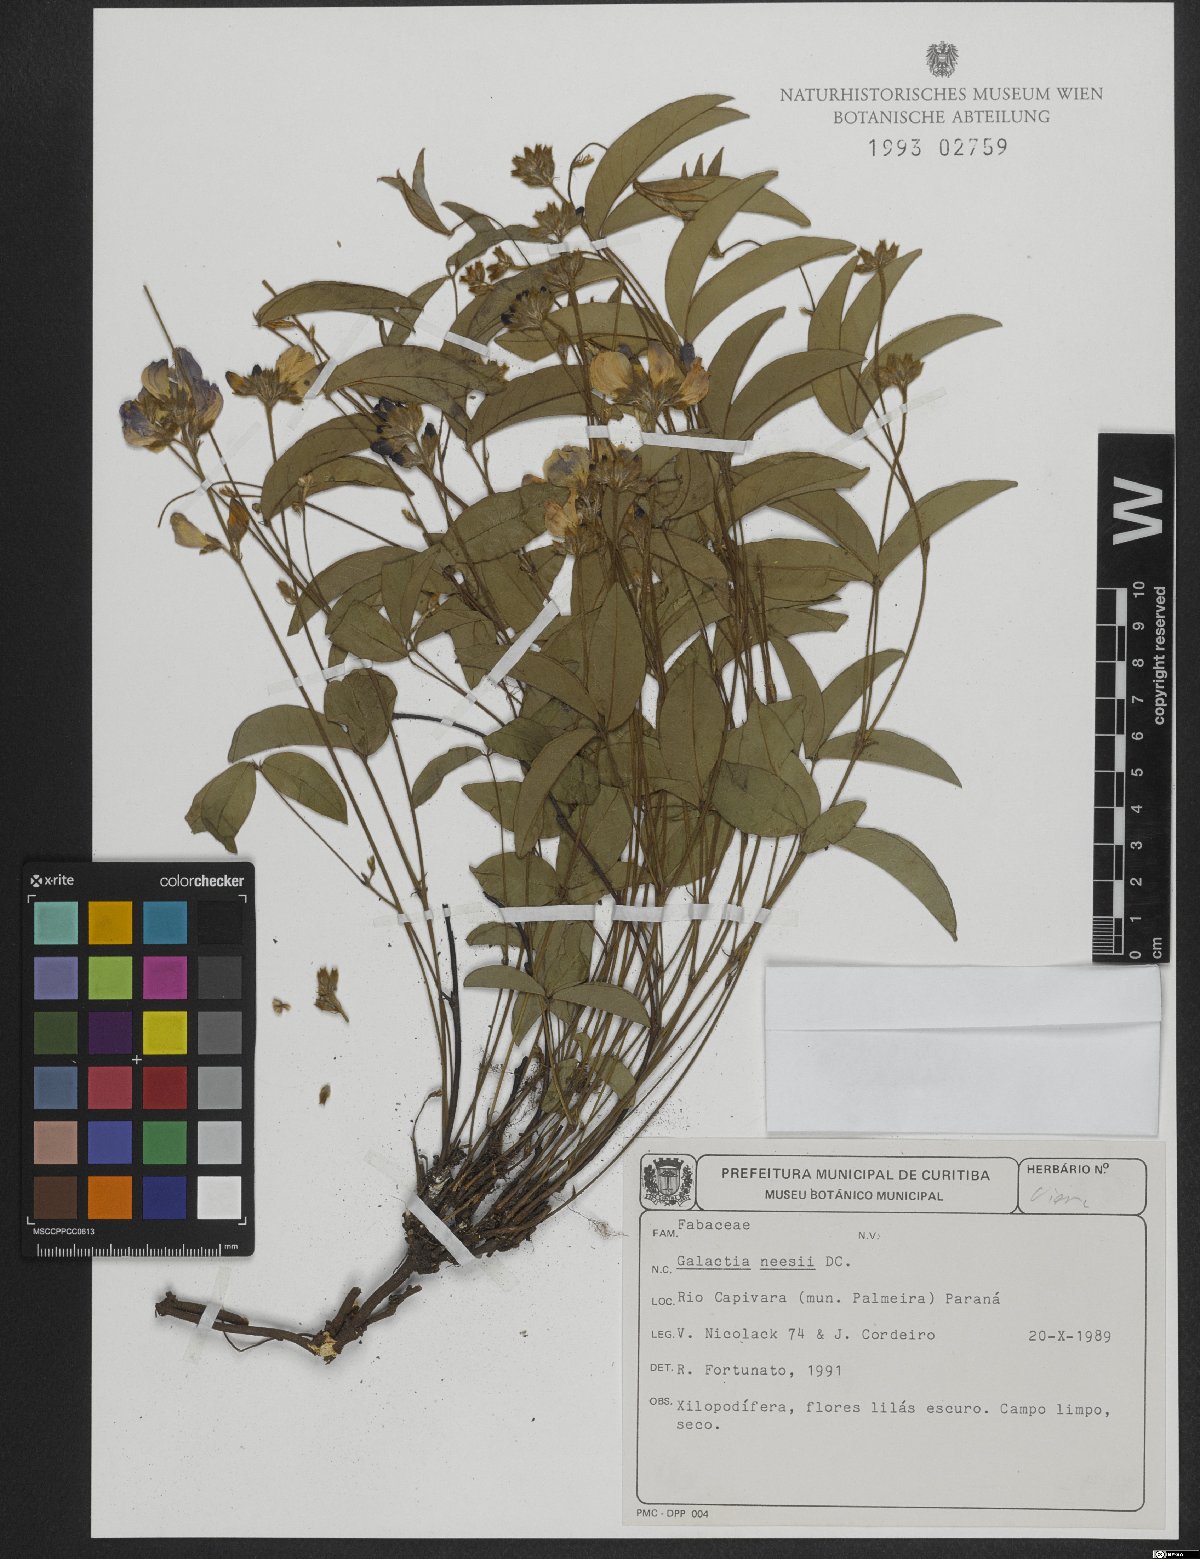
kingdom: Plantae
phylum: Tracheophyta
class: Magnoliopsida
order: Fabales
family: Fabaceae
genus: Betencourtia
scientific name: Betencourtia neesii
